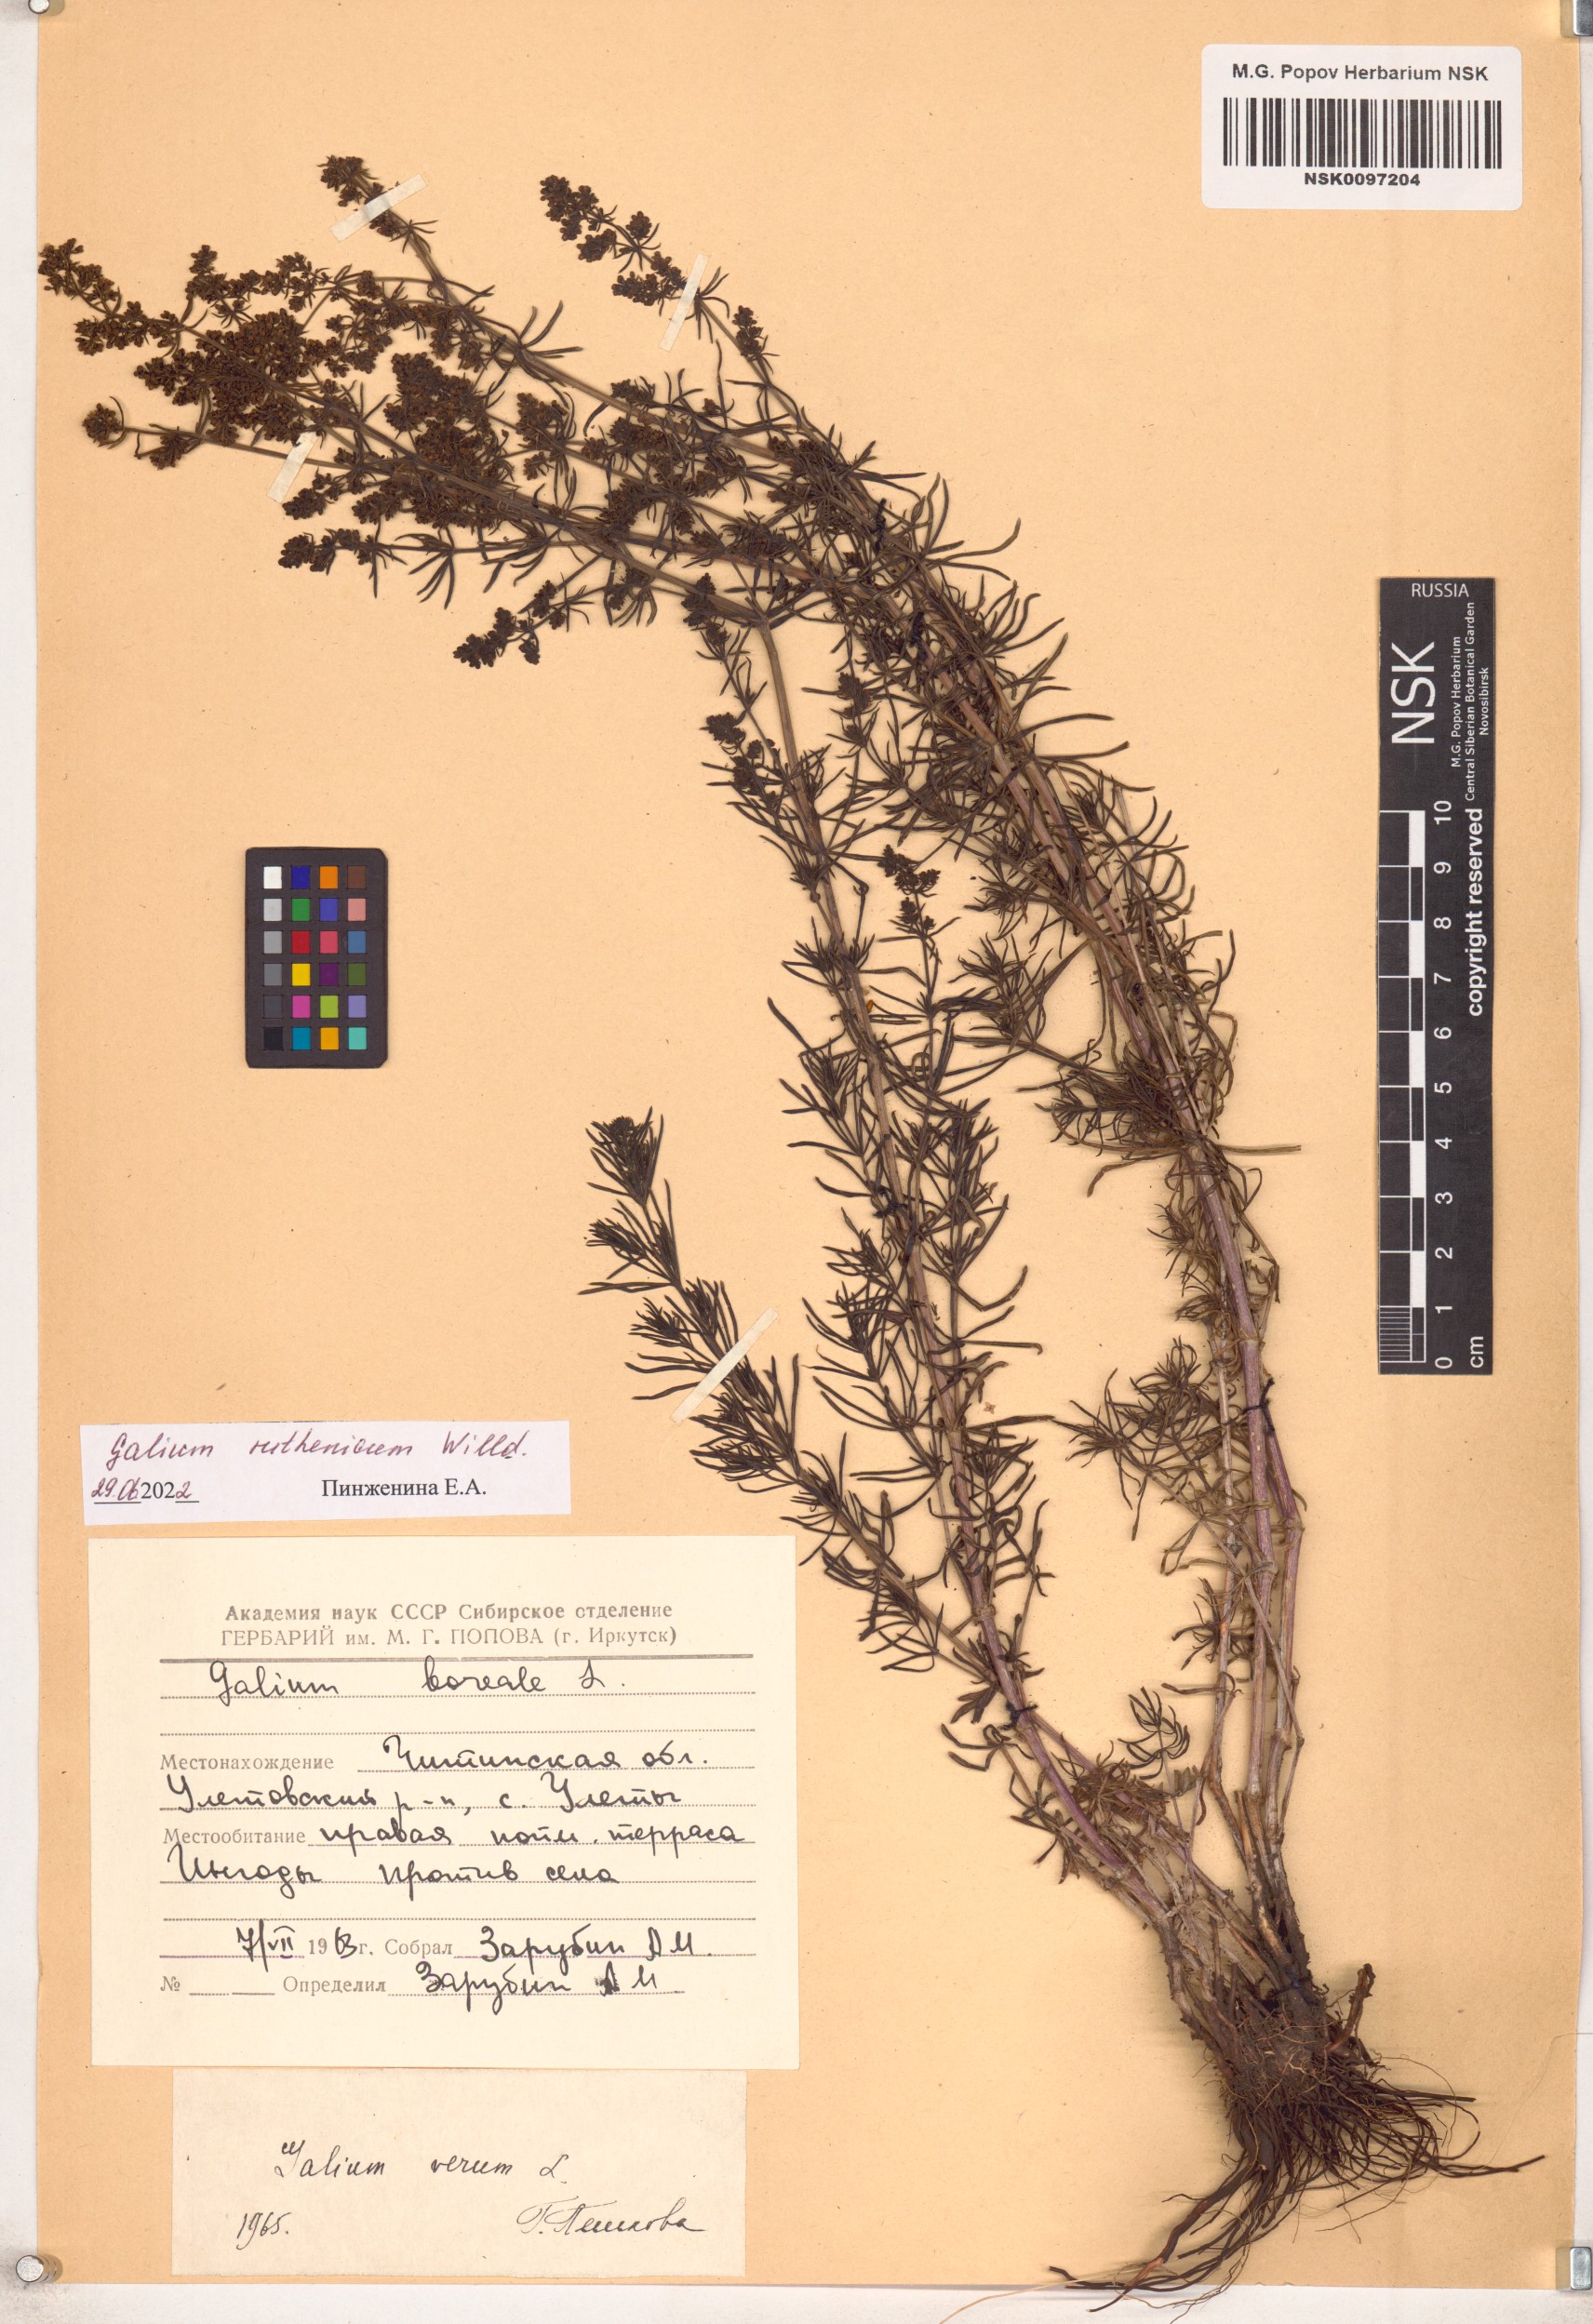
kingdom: Plantae
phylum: Tracheophyta
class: Magnoliopsida
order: Gentianales
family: Rubiaceae
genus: Galium
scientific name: Galium verum
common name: Lady's bedstraw
